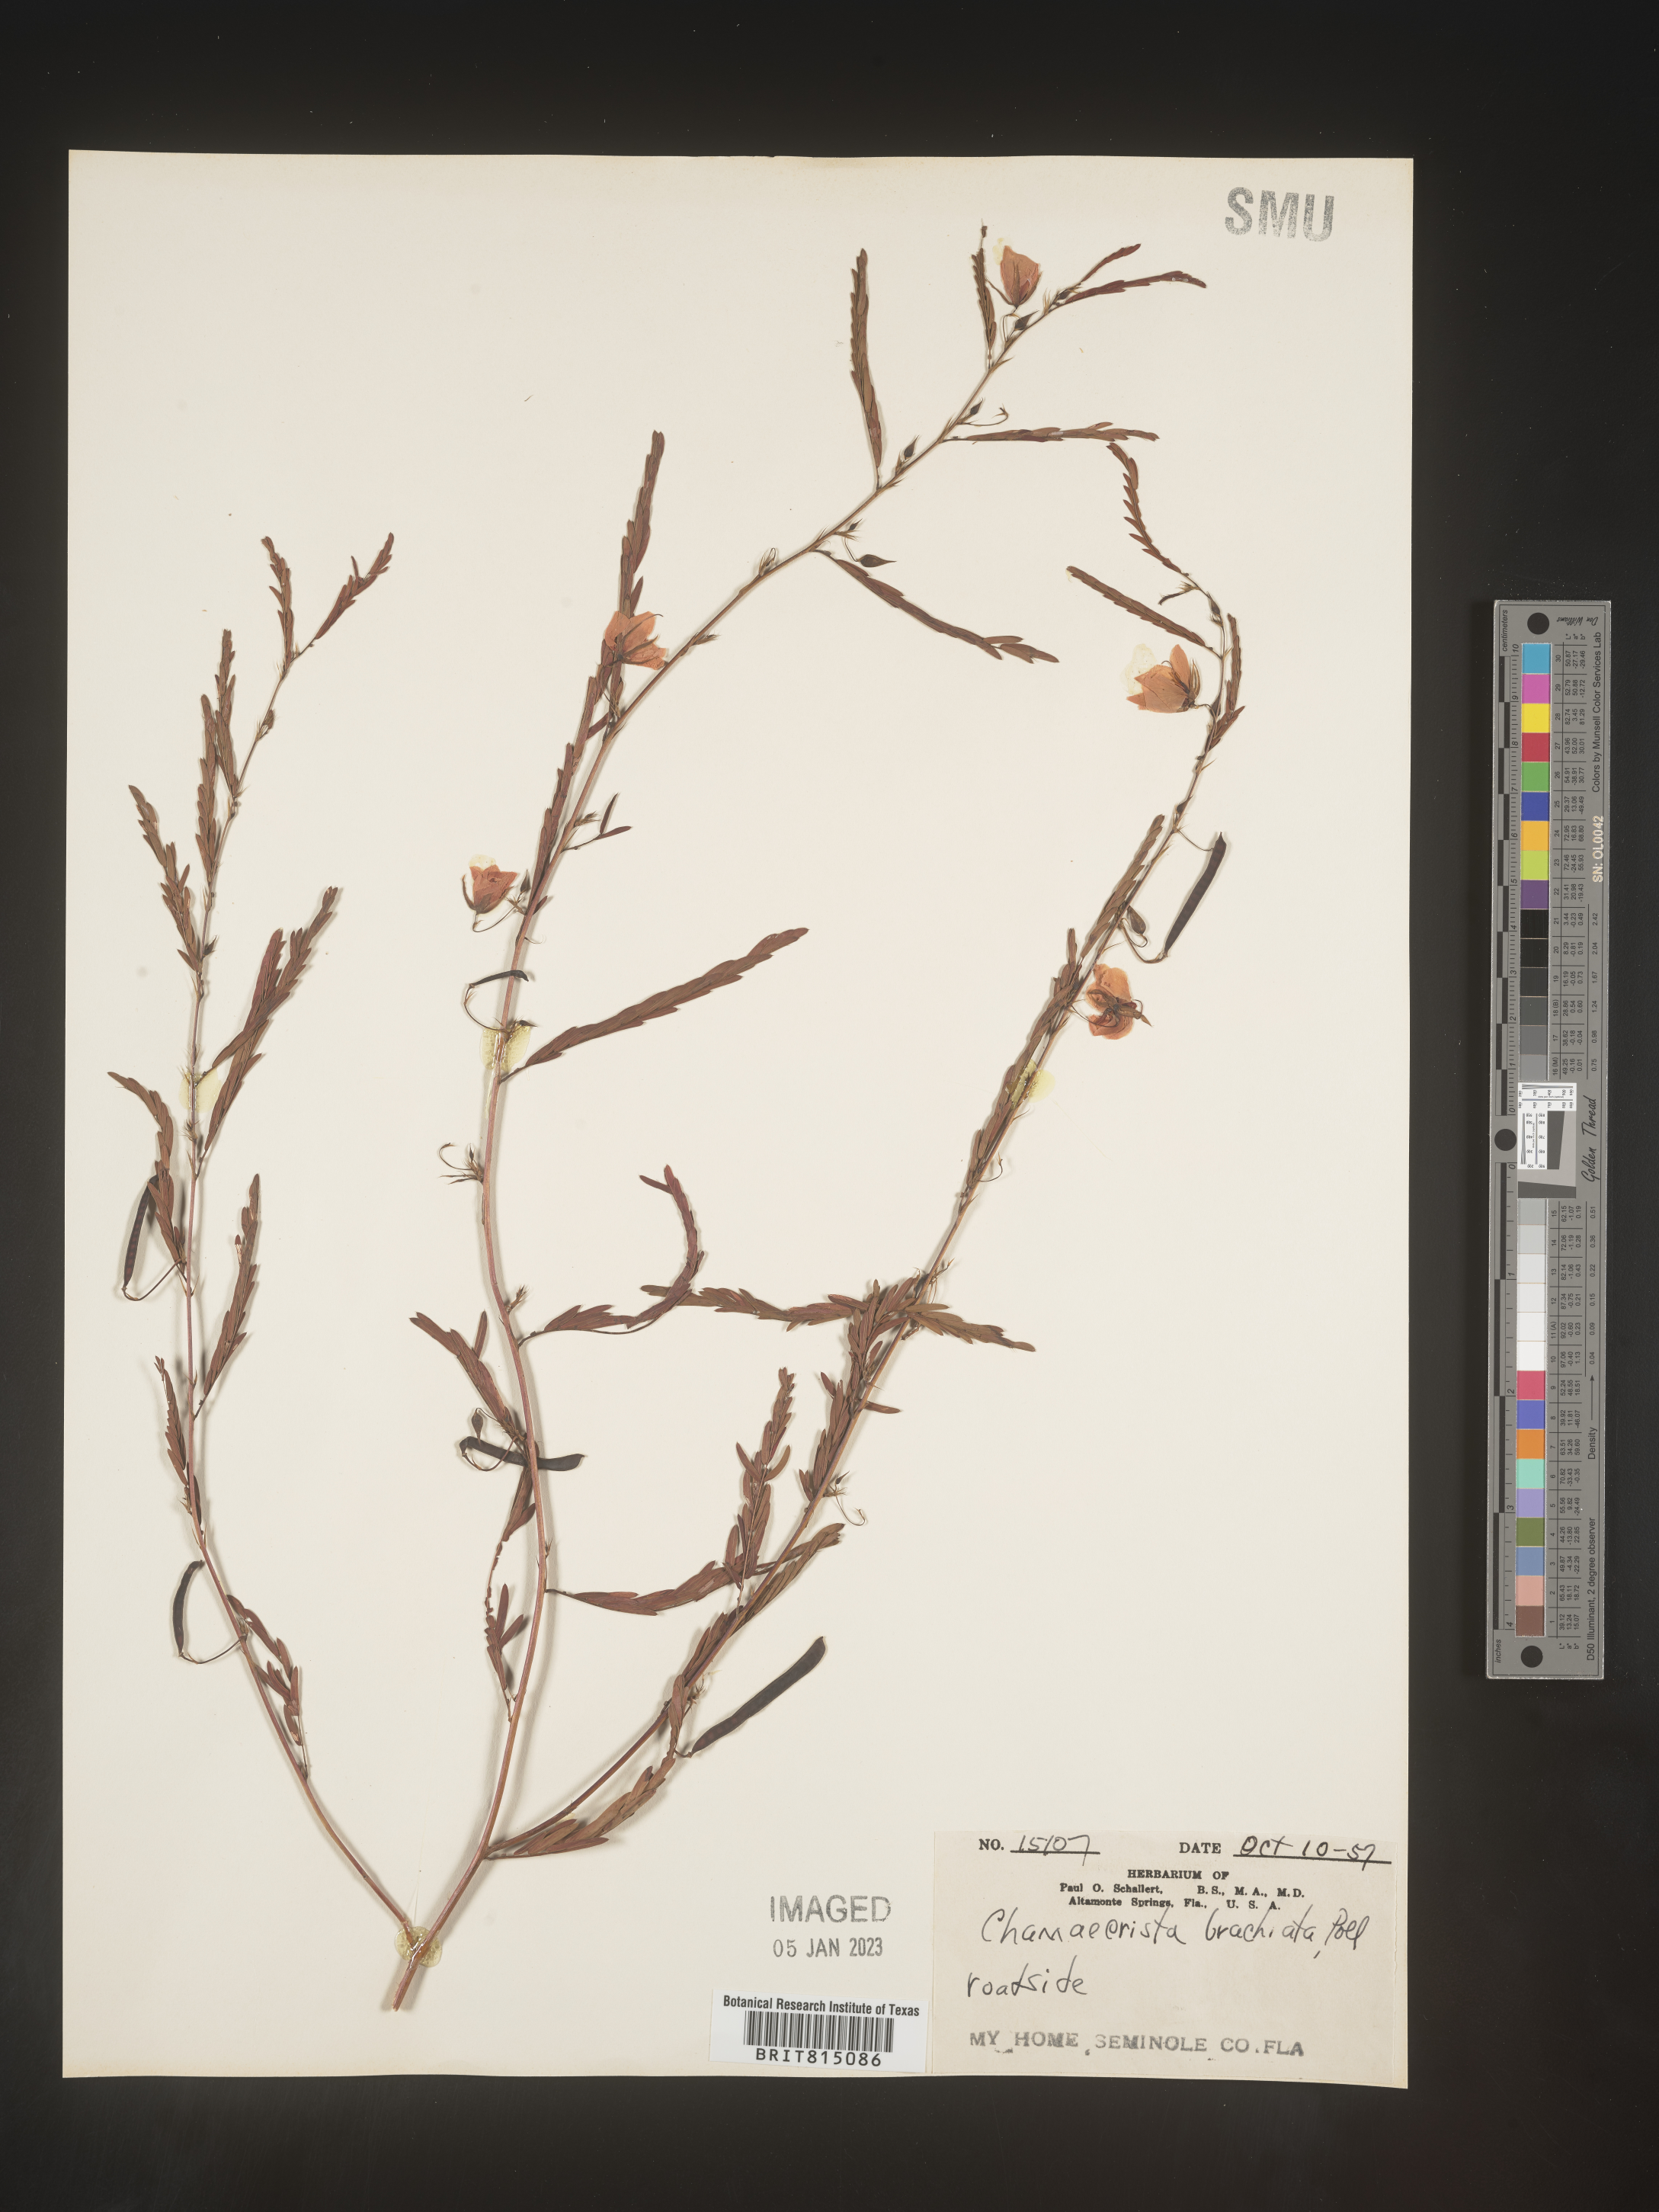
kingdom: Plantae
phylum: Tracheophyta
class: Magnoliopsida
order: Fabales
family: Fabaceae
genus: Chamaecrista
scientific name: Chamaecrista fasciculata
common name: Golden cassia
